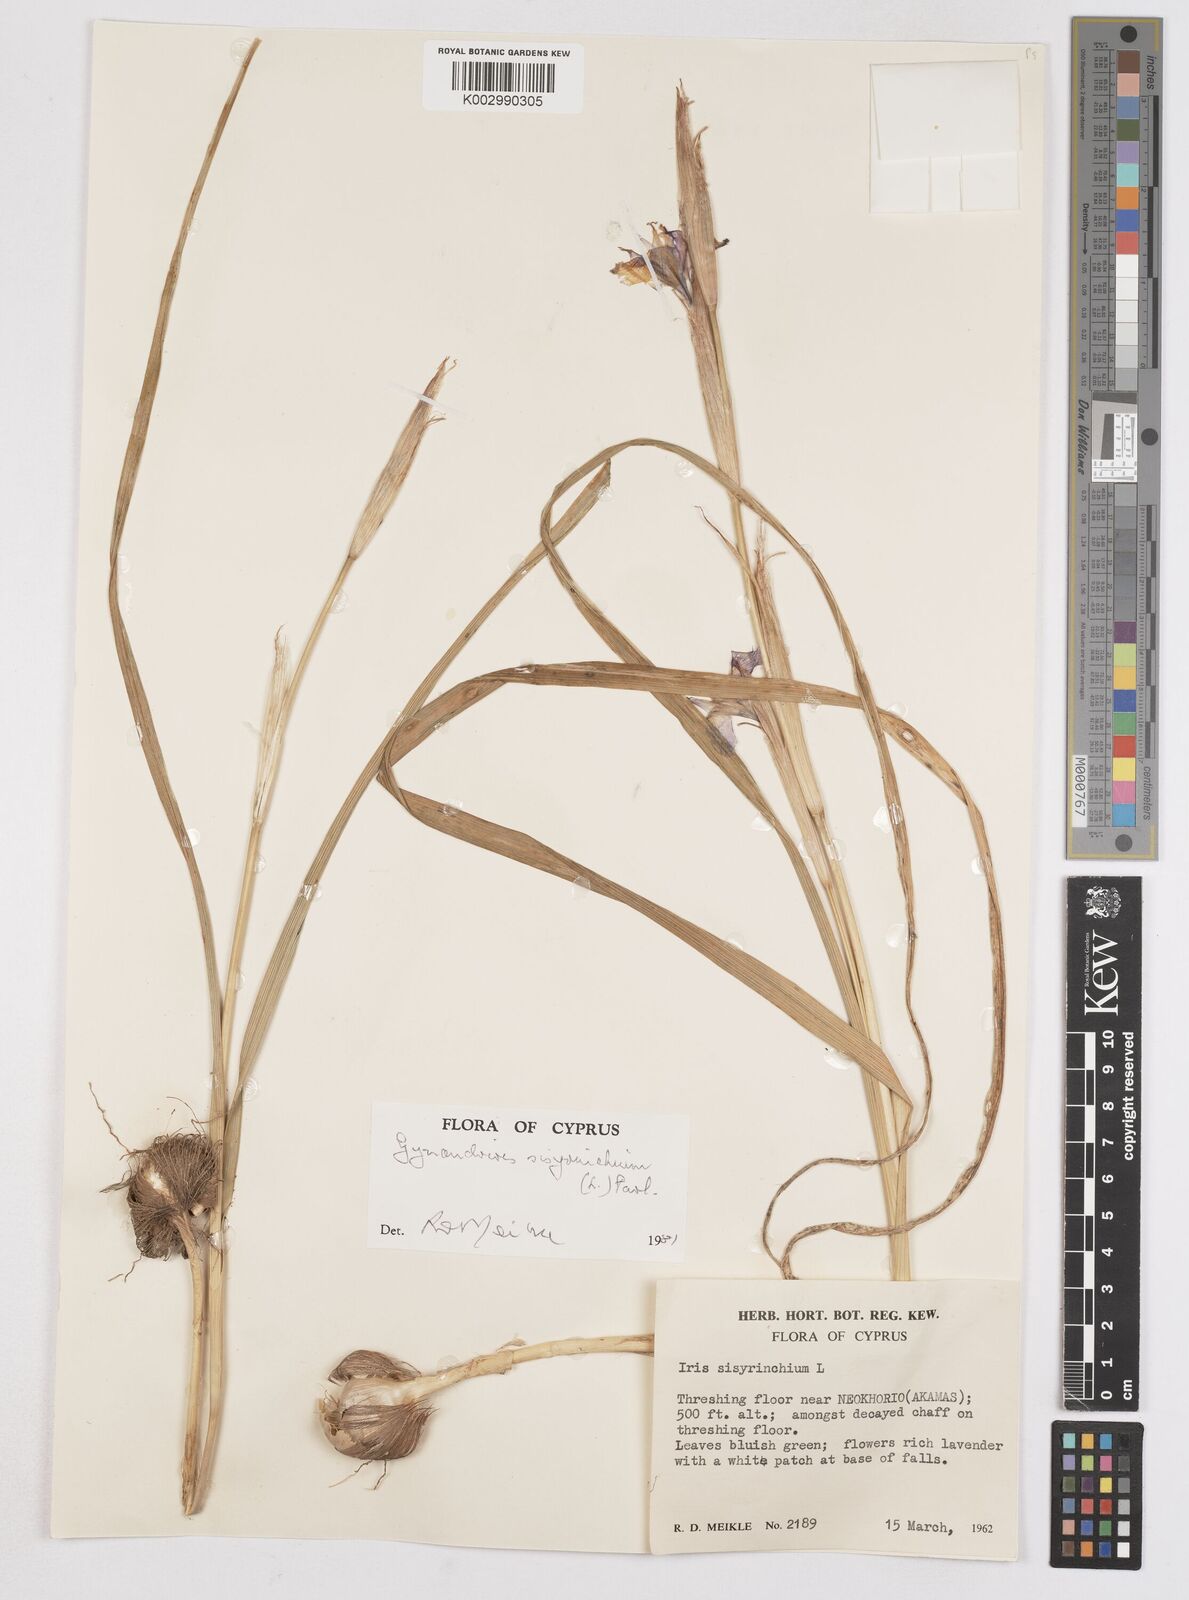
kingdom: Plantae
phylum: Tracheophyta
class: Liliopsida
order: Asparagales
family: Iridaceae
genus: Moraea
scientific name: Moraea sisyrinchium
